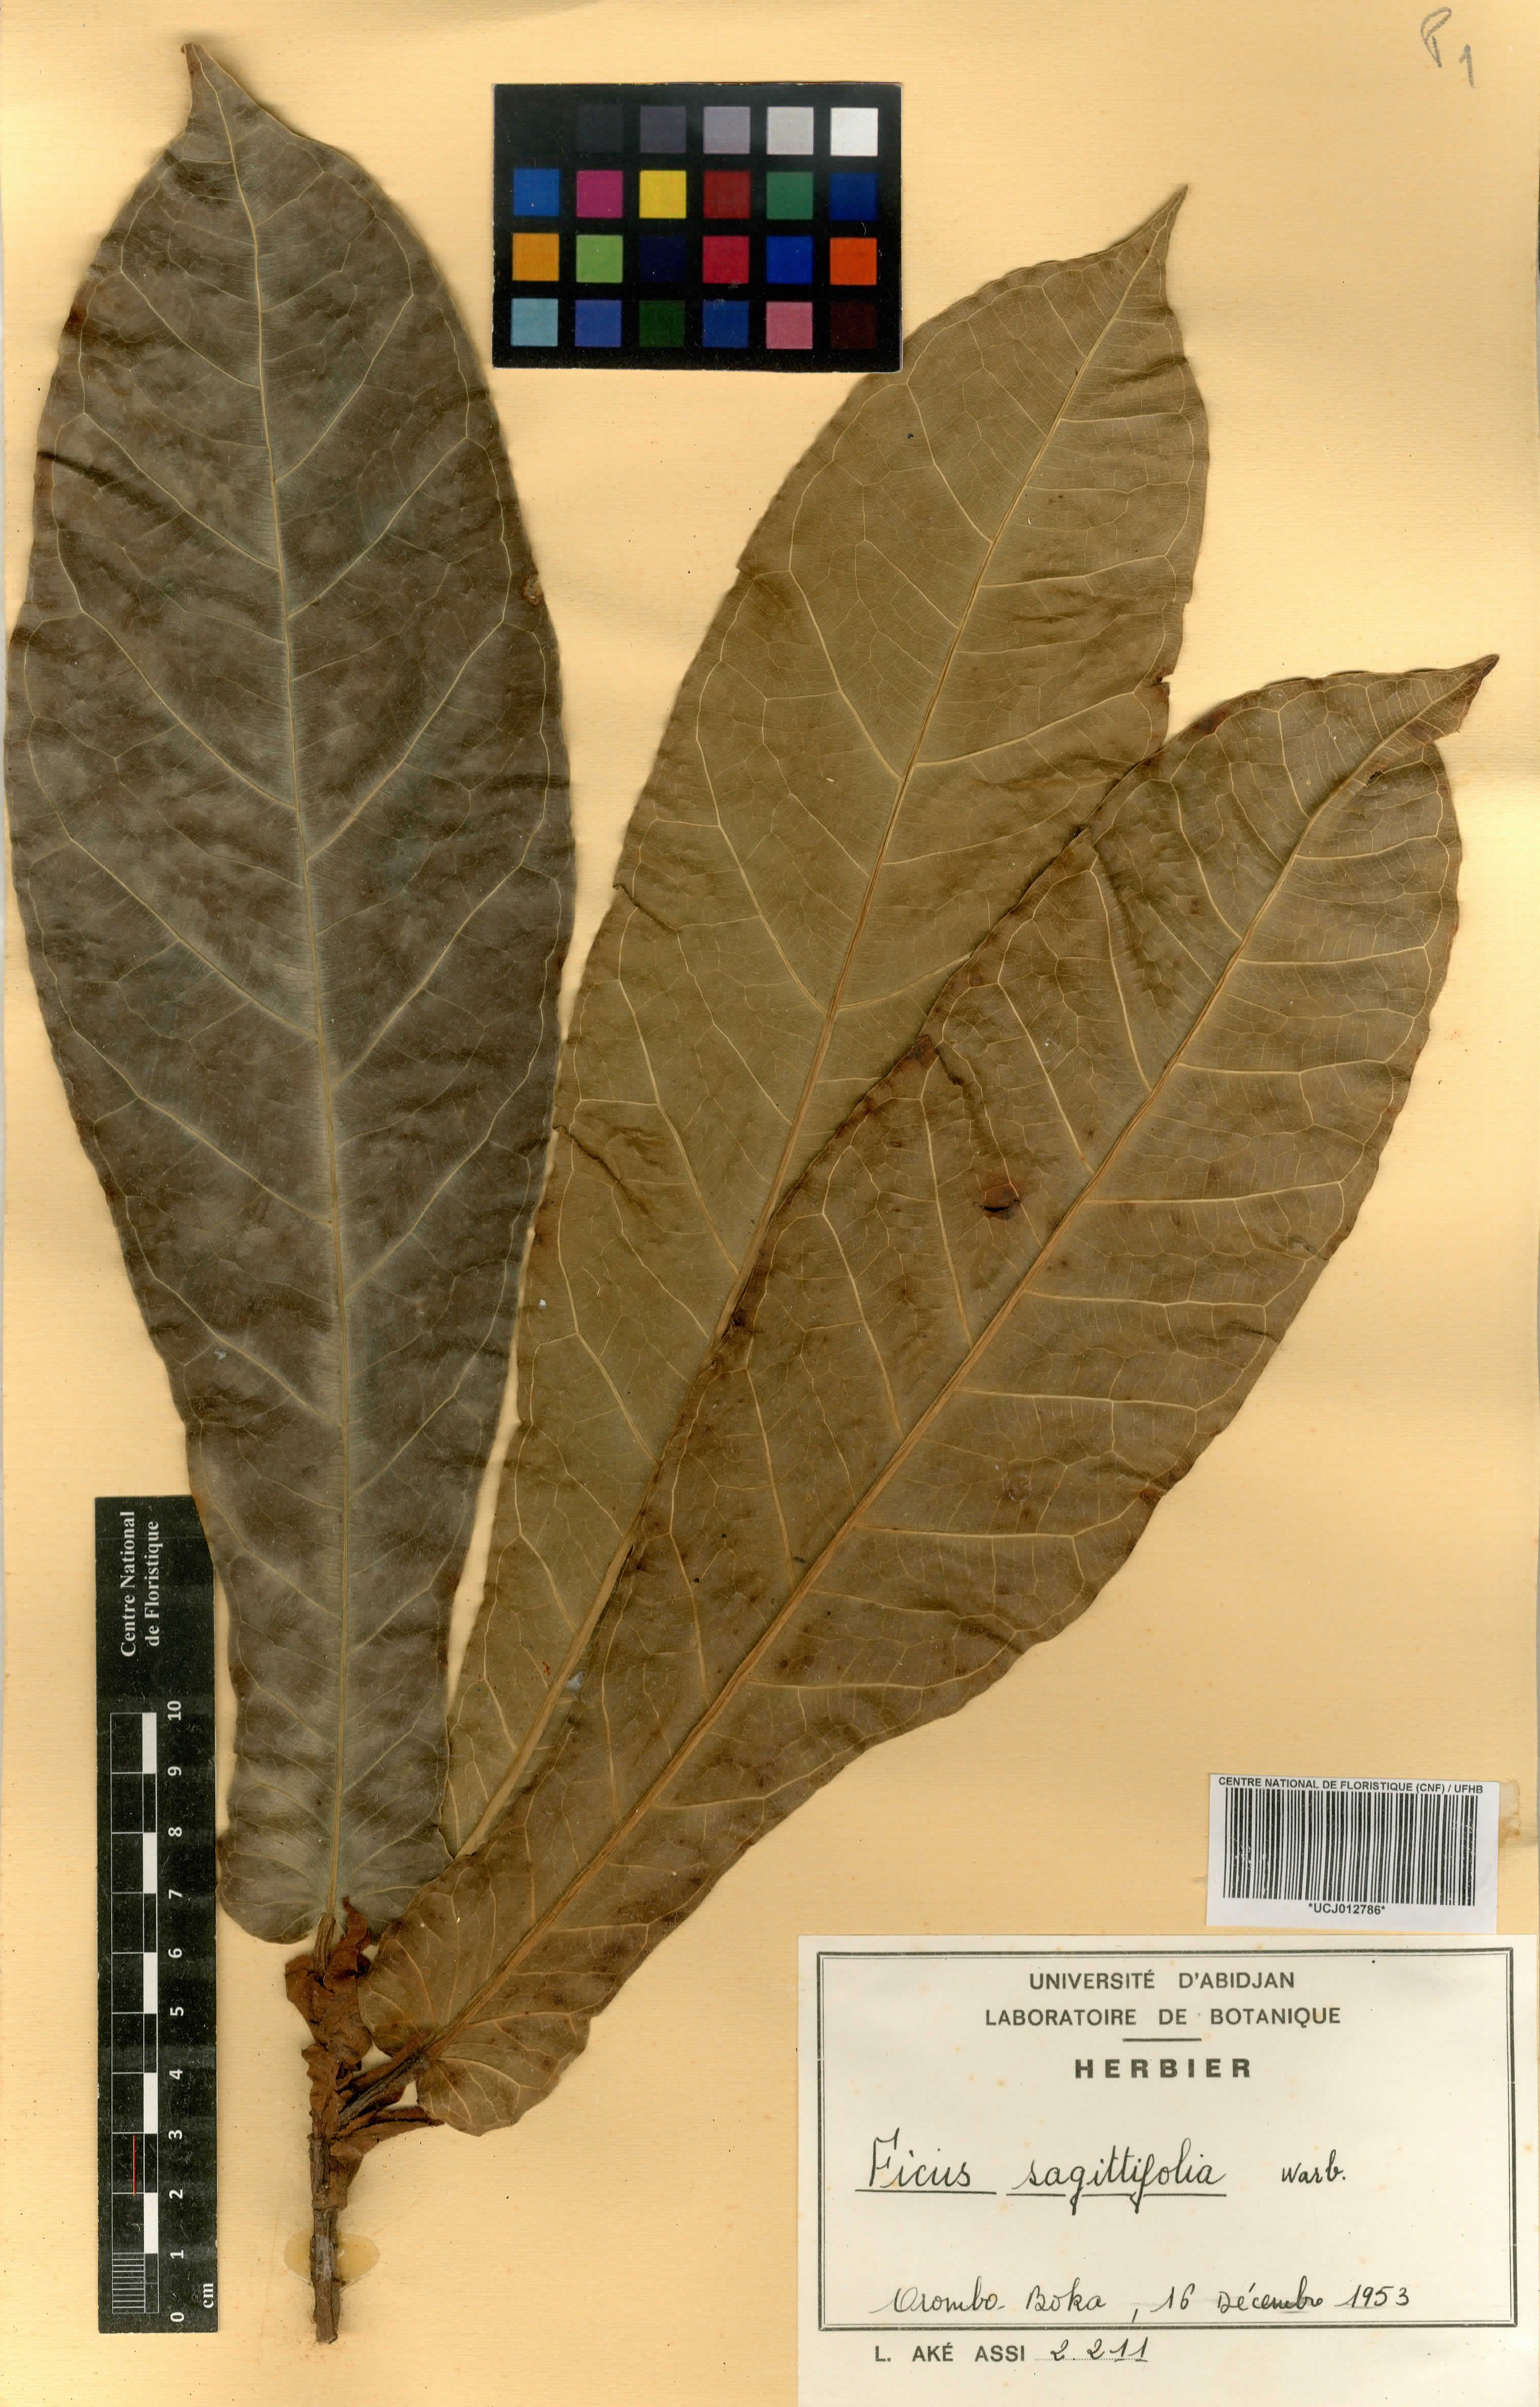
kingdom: Plantae
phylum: Tracheophyta
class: Magnoliopsida
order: Rosales
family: Moraceae
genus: Ficus
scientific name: Ficus sagittifolia
